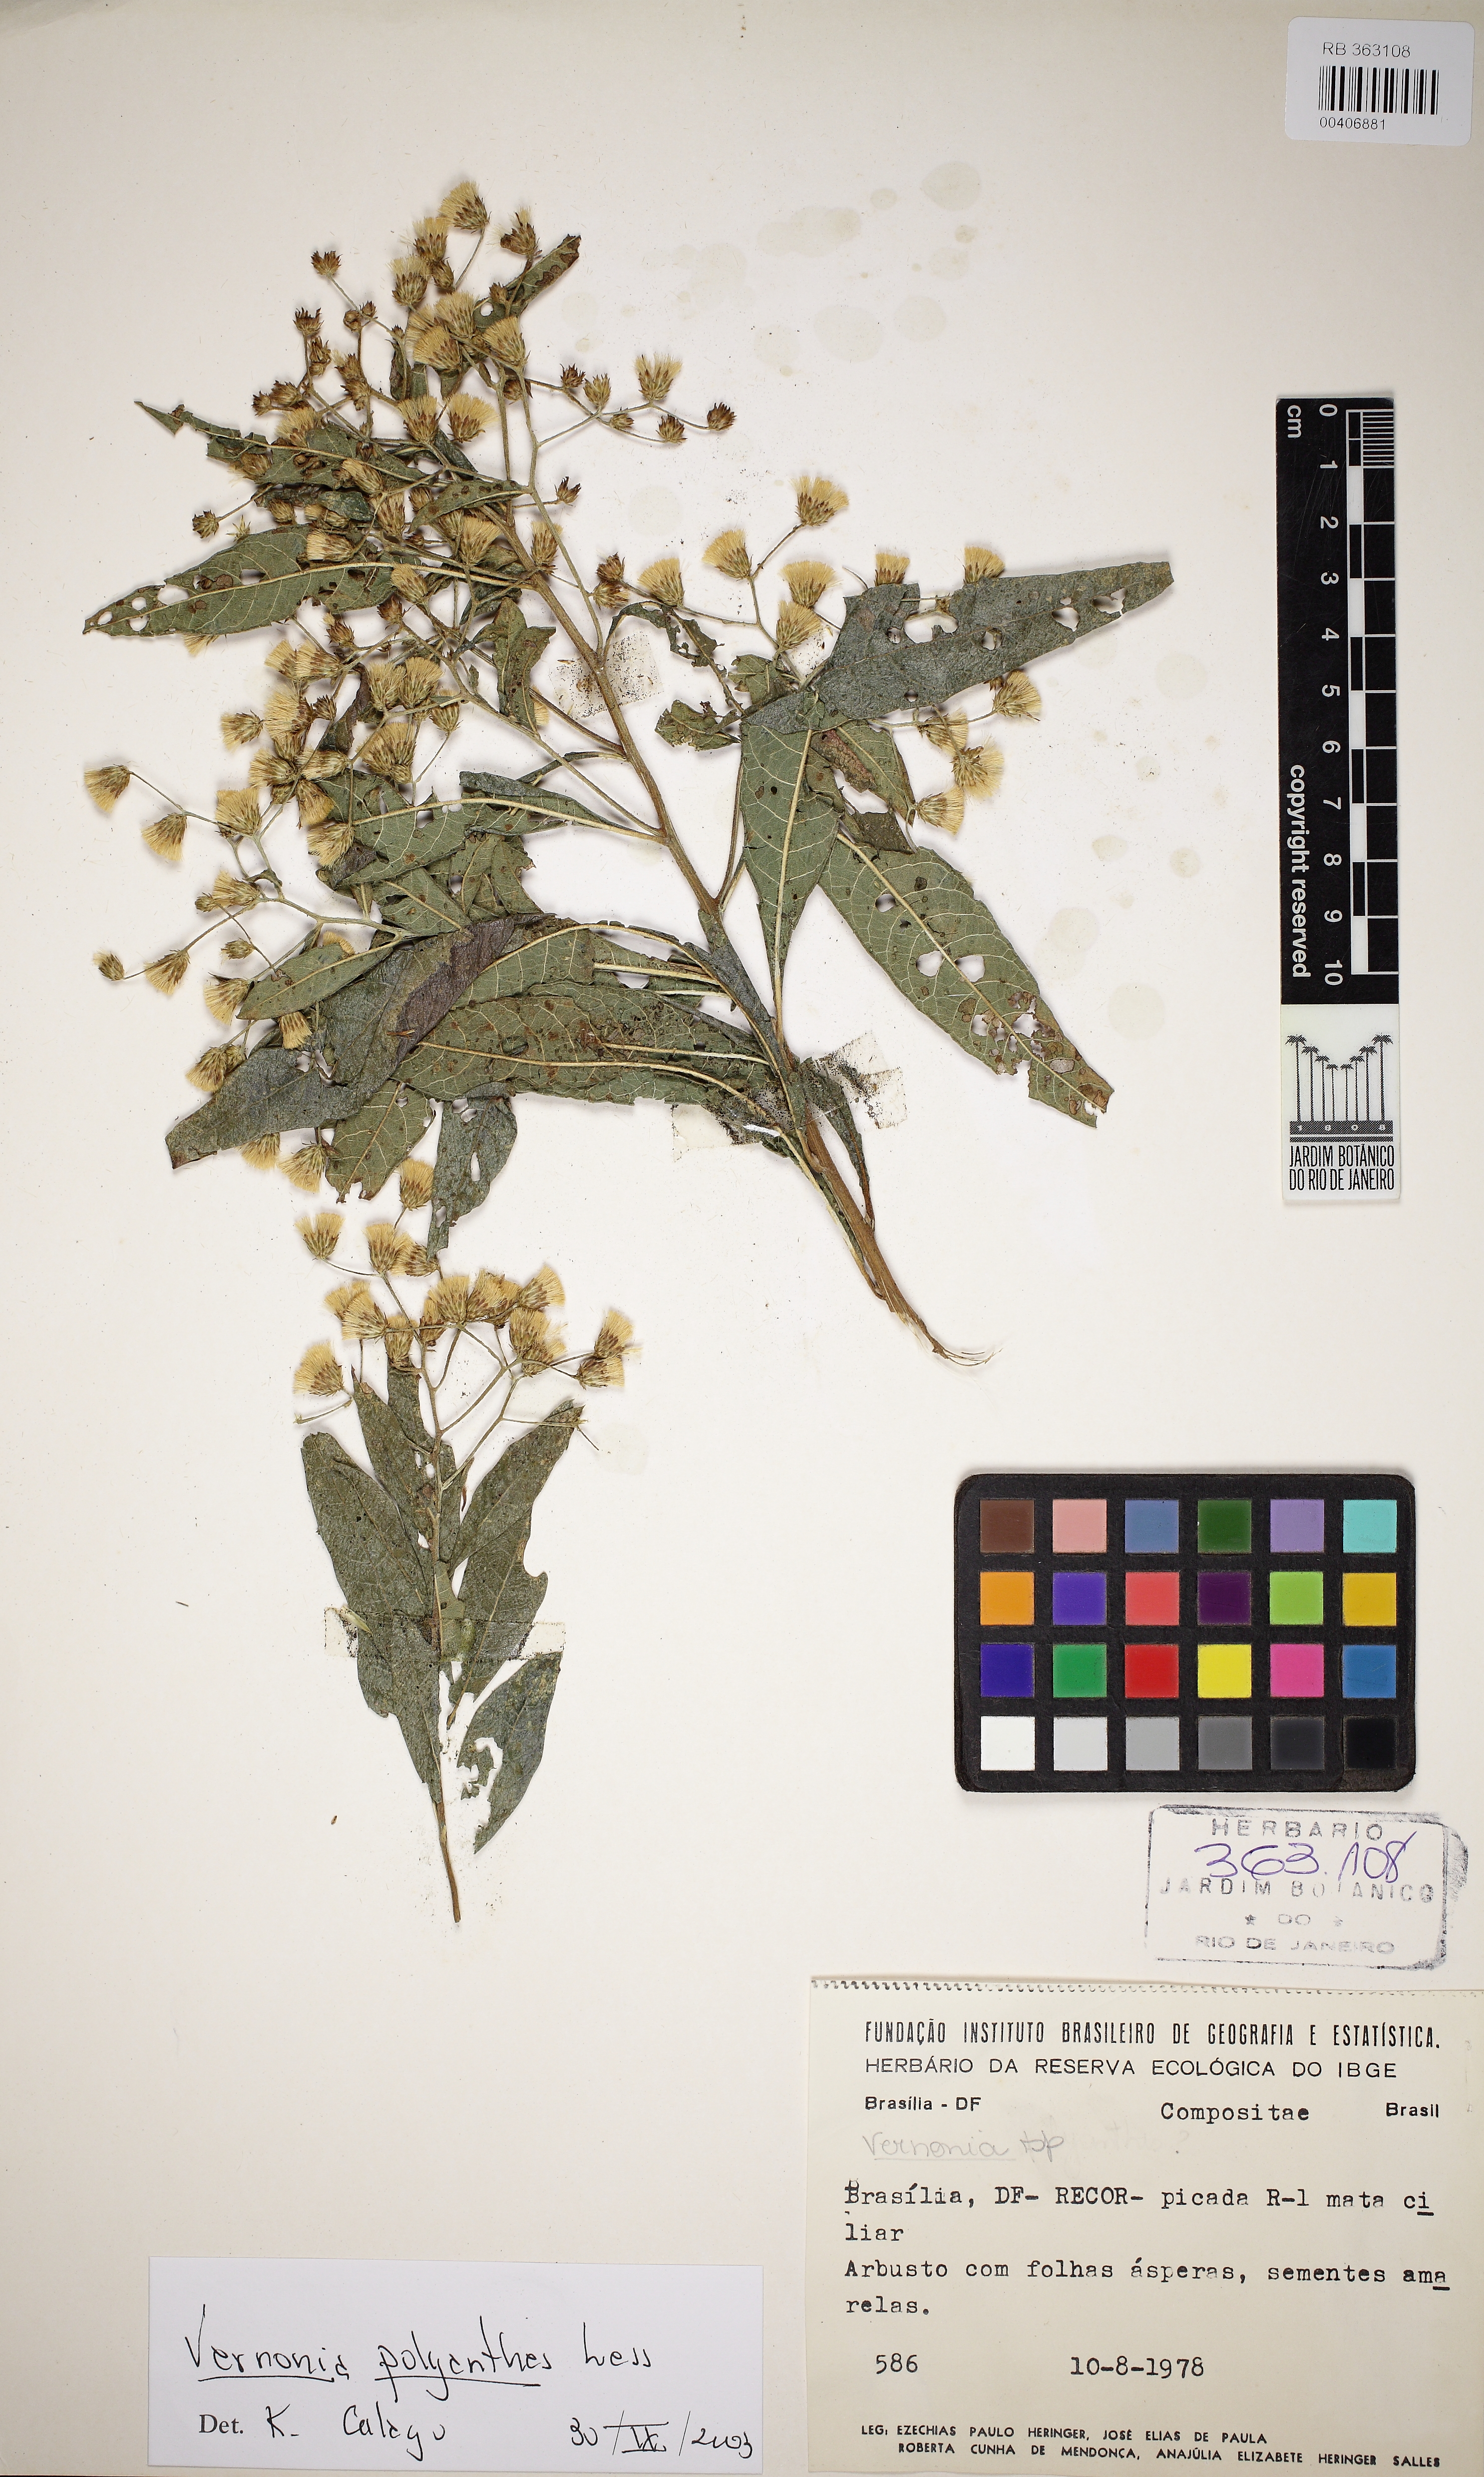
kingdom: Plantae
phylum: Tracheophyta
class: Magnoliopsida
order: Asterales
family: Asteraceae
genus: Vernonanthura
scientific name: Vernonanthura polyanthes
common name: Tree aster
